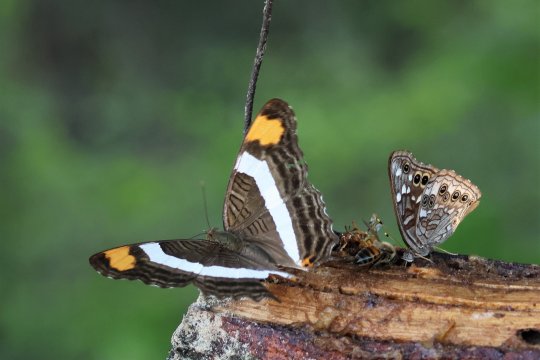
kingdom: Animalia
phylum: Arthropoda
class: Insecta
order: Lepidoptera
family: Nymphalidae
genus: Asterocampa
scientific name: Asterocampa leilia
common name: Empress Leilia
